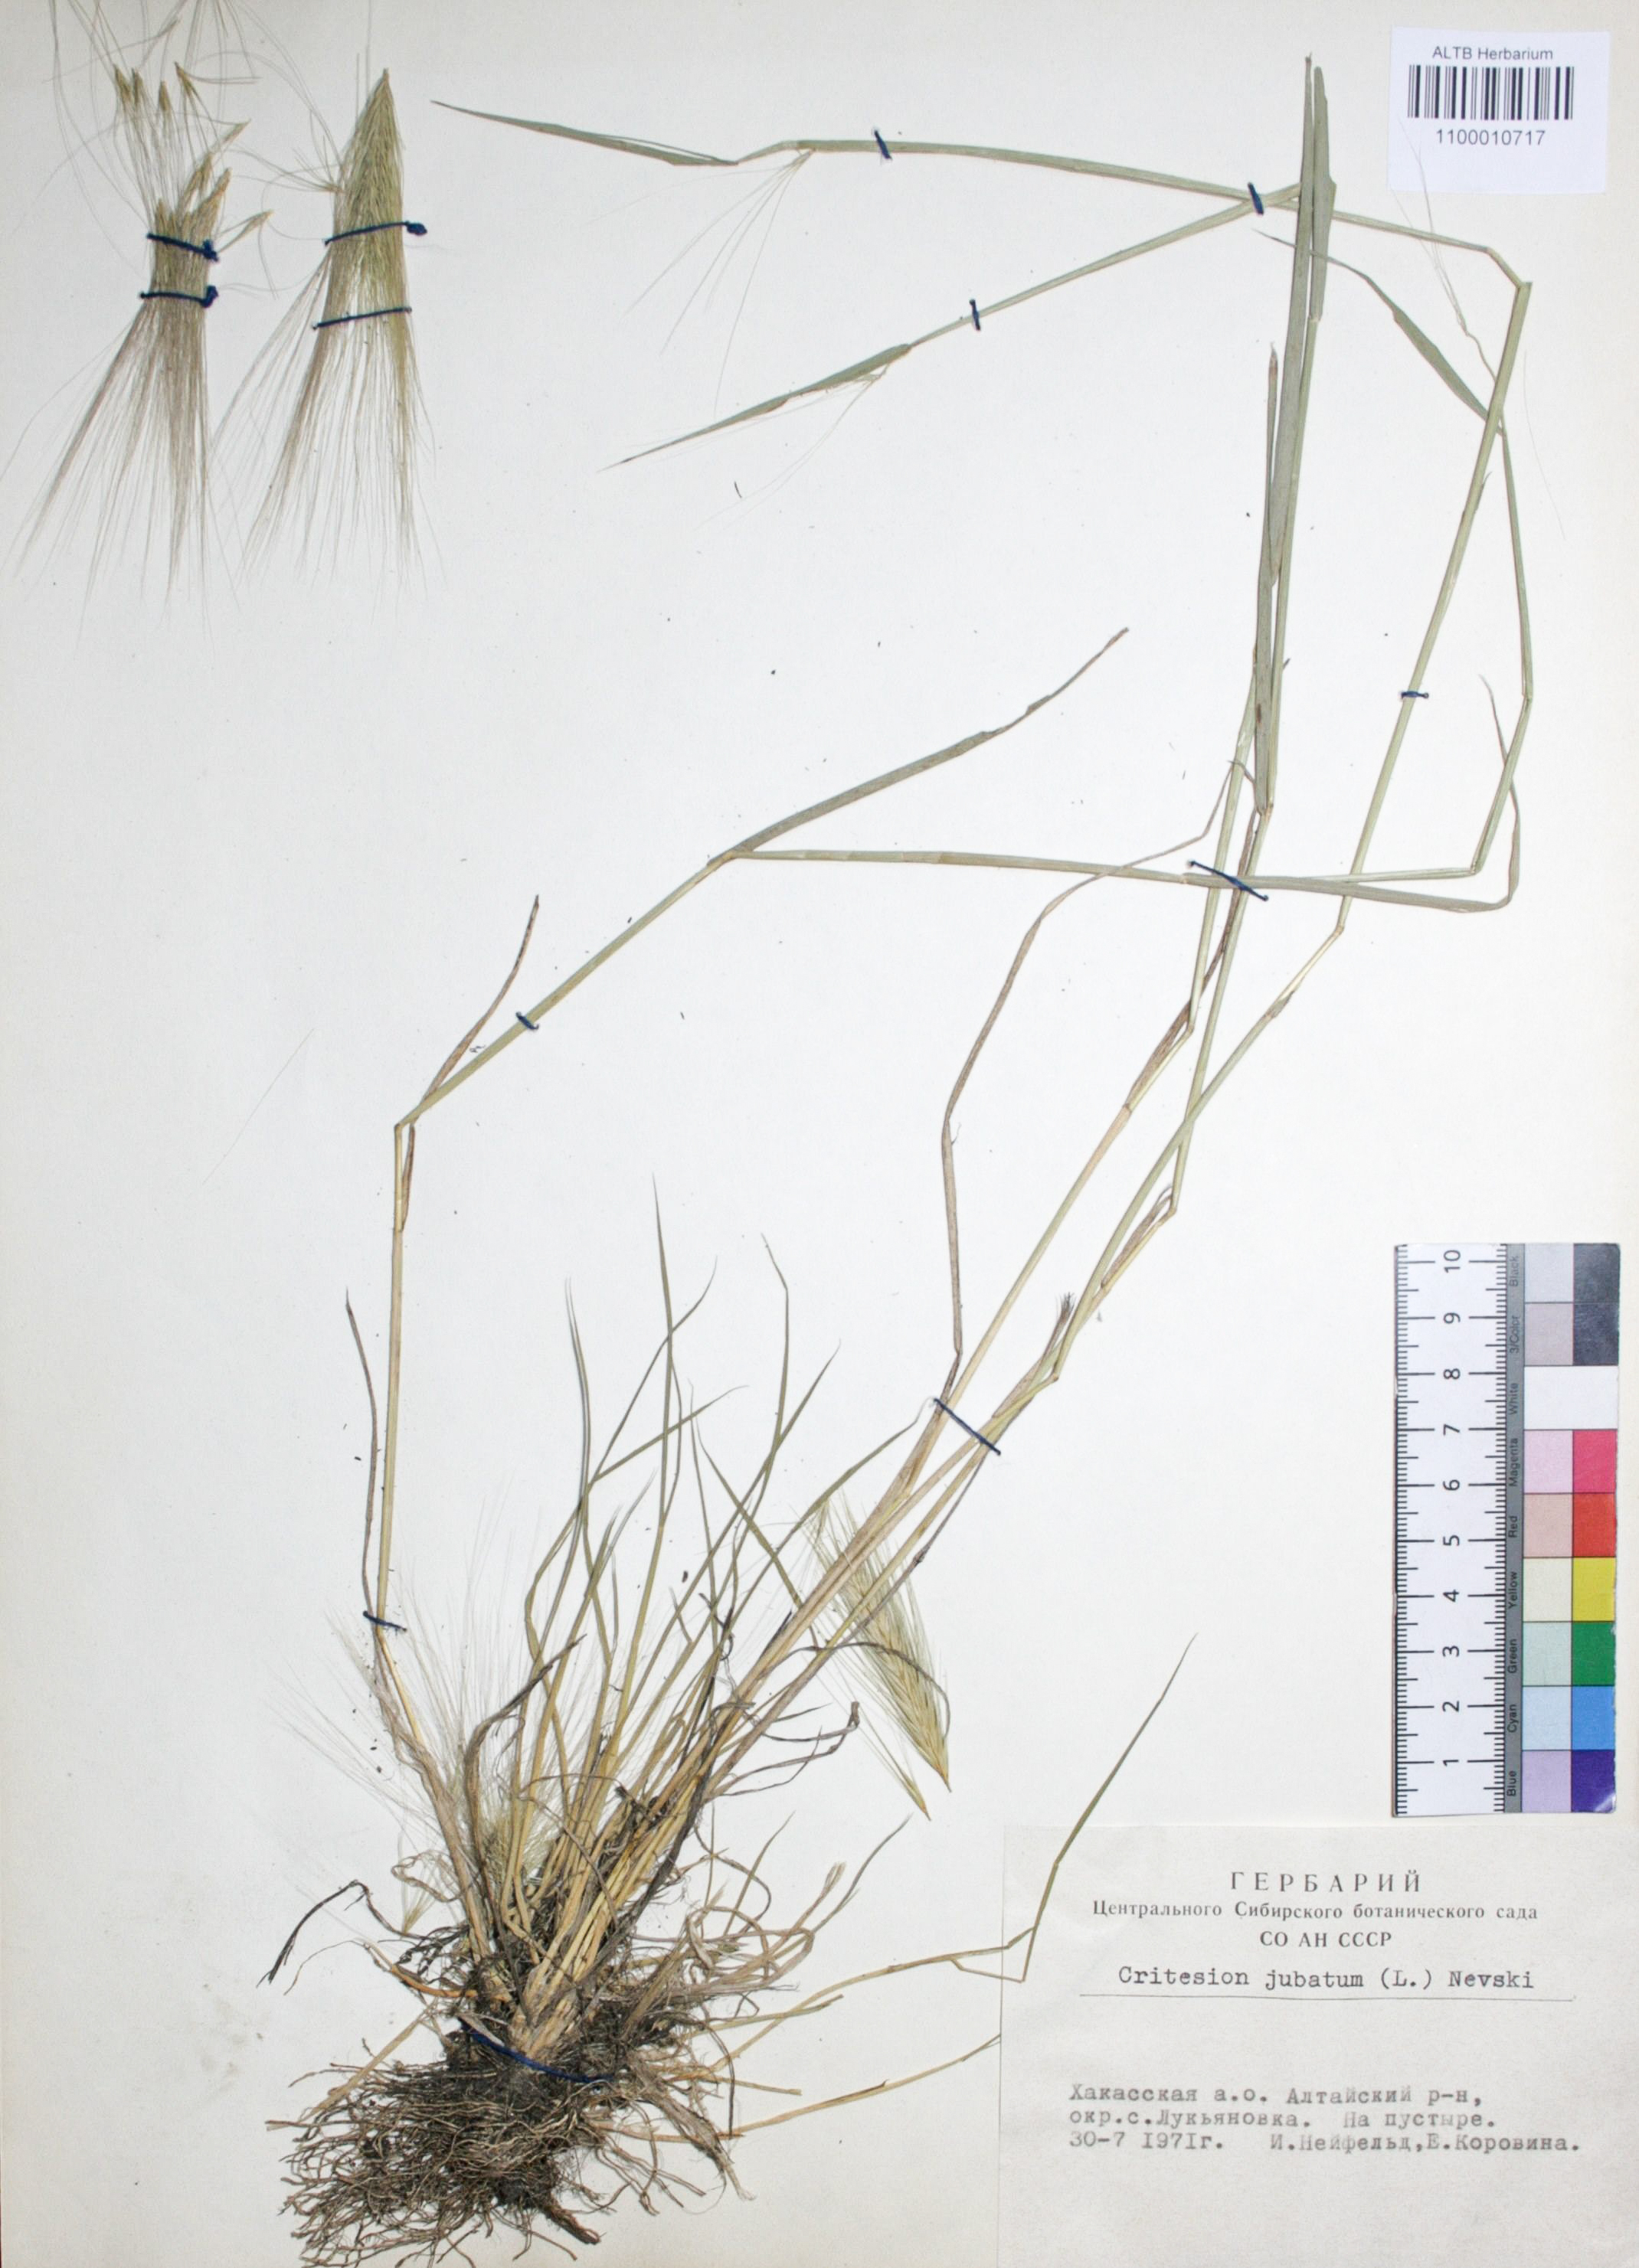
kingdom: Plantae
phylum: Tracheophyta
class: Liliopsida
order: Poales
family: Poaceae
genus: Hordeum
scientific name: Hordeum jubatum
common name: Foxtail barley
